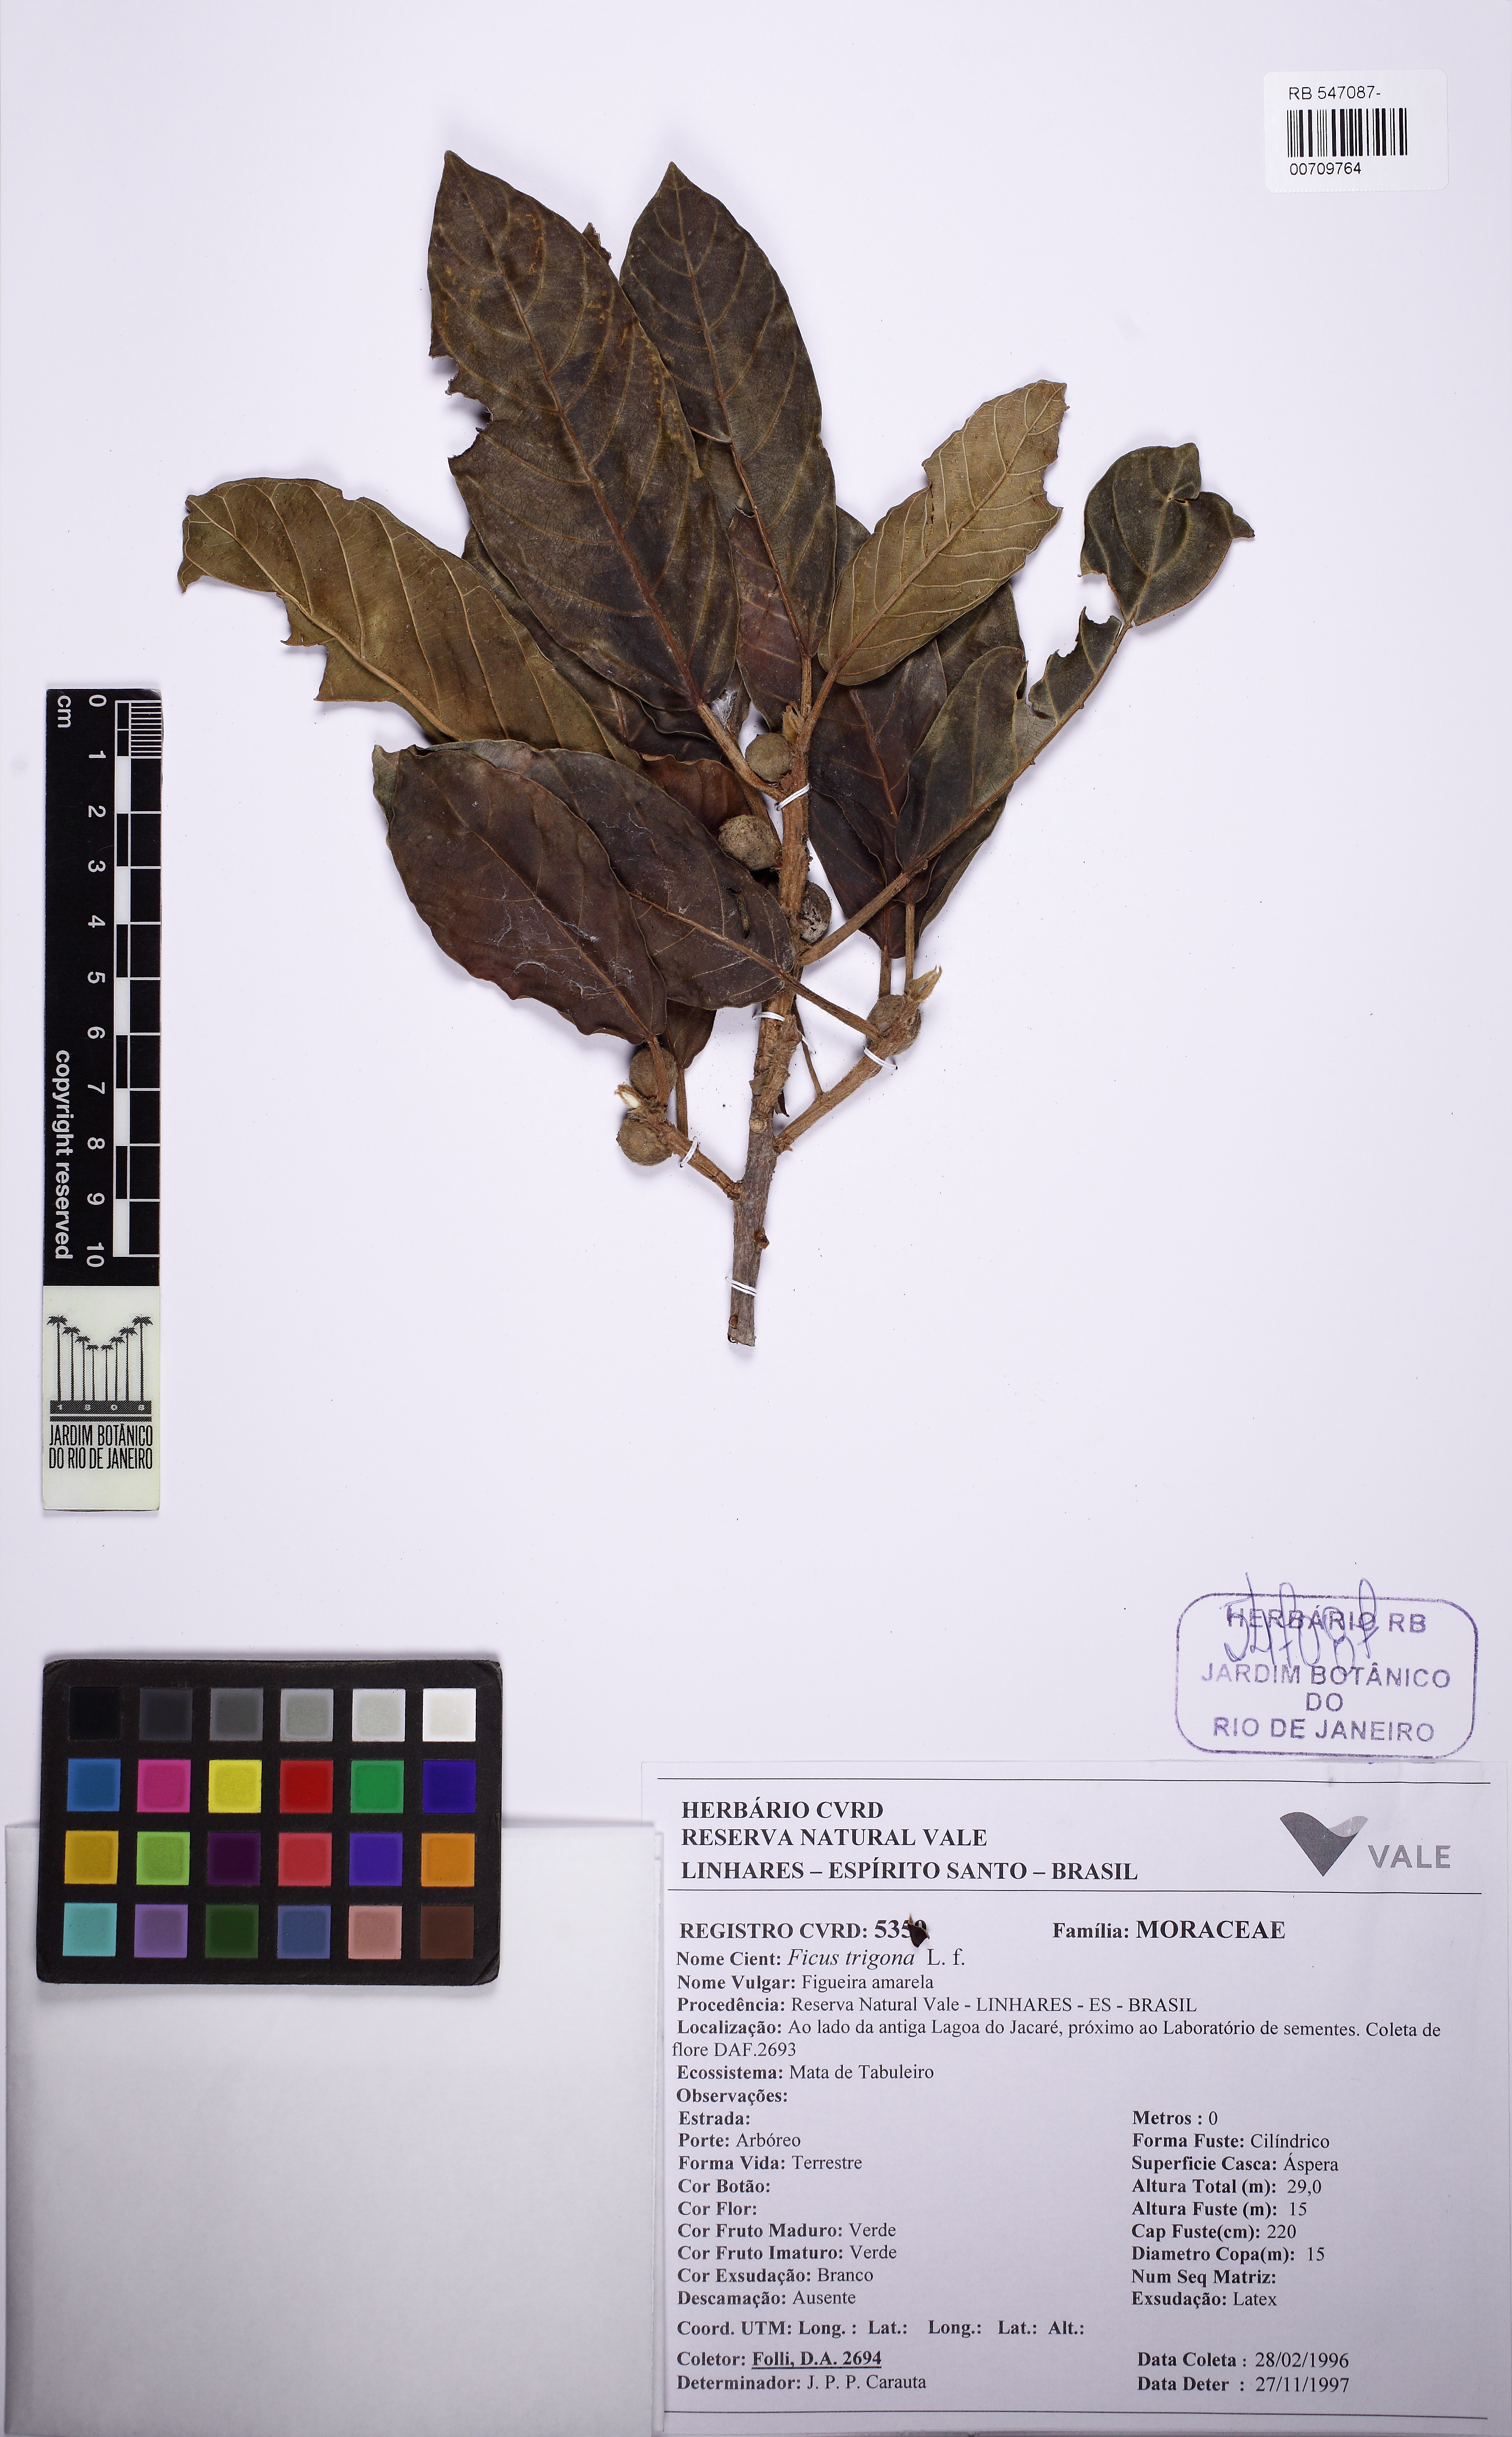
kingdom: Plantae
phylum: Tracheophyta
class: Magnoliopsida
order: Rosales
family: Moraceae
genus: Ficus
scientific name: Ficus trigona
